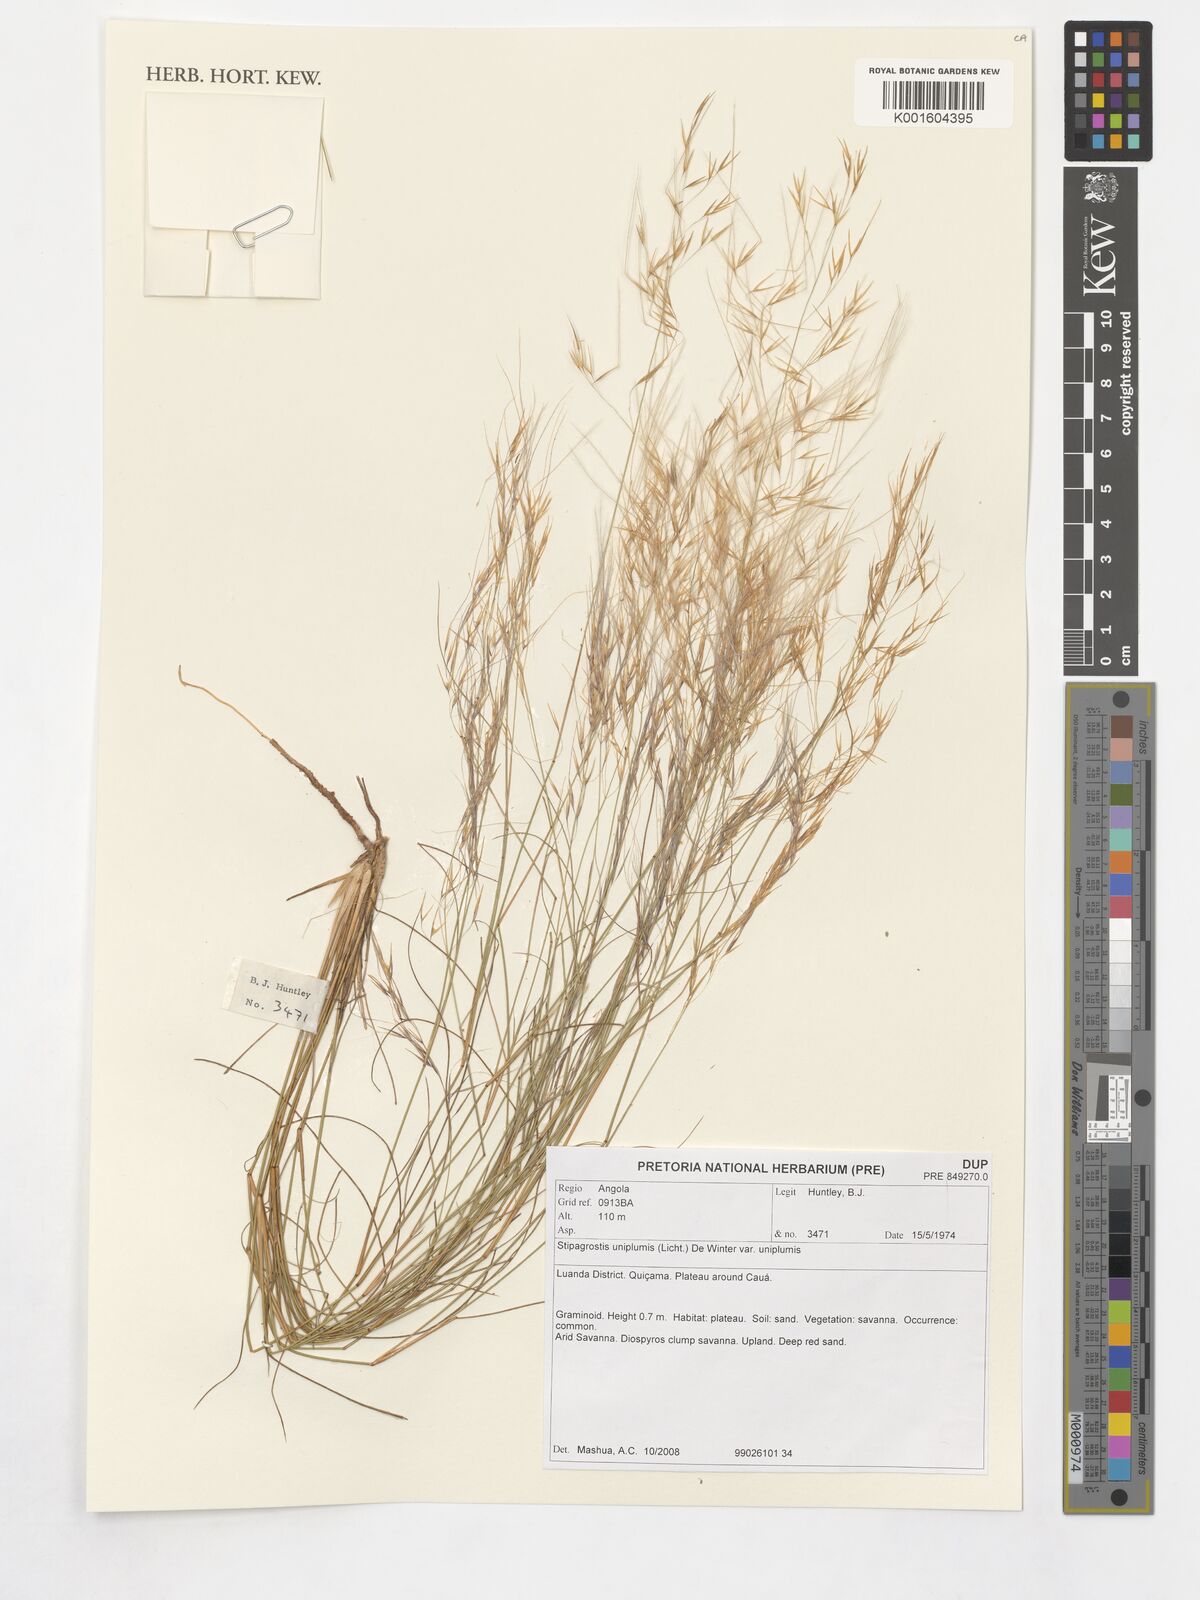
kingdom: Plantae
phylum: Tracheophyta
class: Liliopsida
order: Poales
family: Poaceae
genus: Stipagrostis
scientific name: Stipagrostis uniplumis
